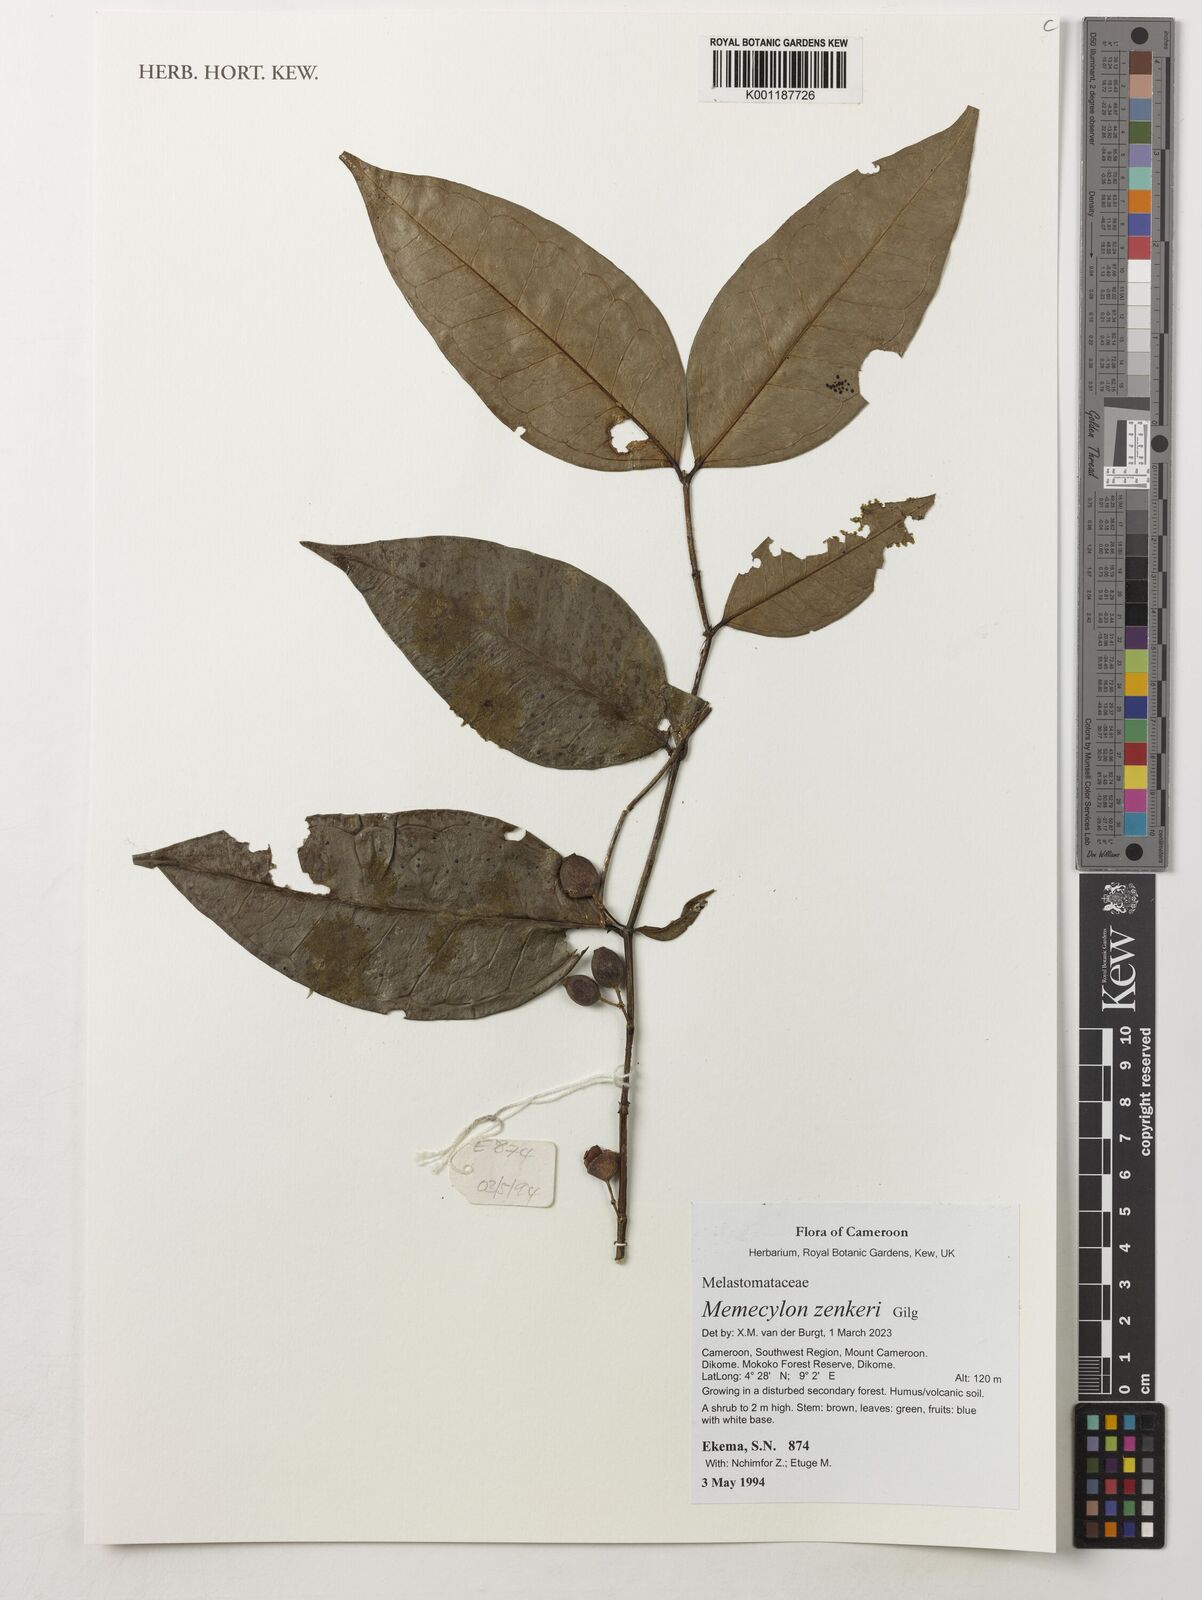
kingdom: Plantae
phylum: Tracheophyta
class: Magnoliopsida
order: Myrtales
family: Melastomataceae
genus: Memecylon
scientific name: Memecylon zenkeri
